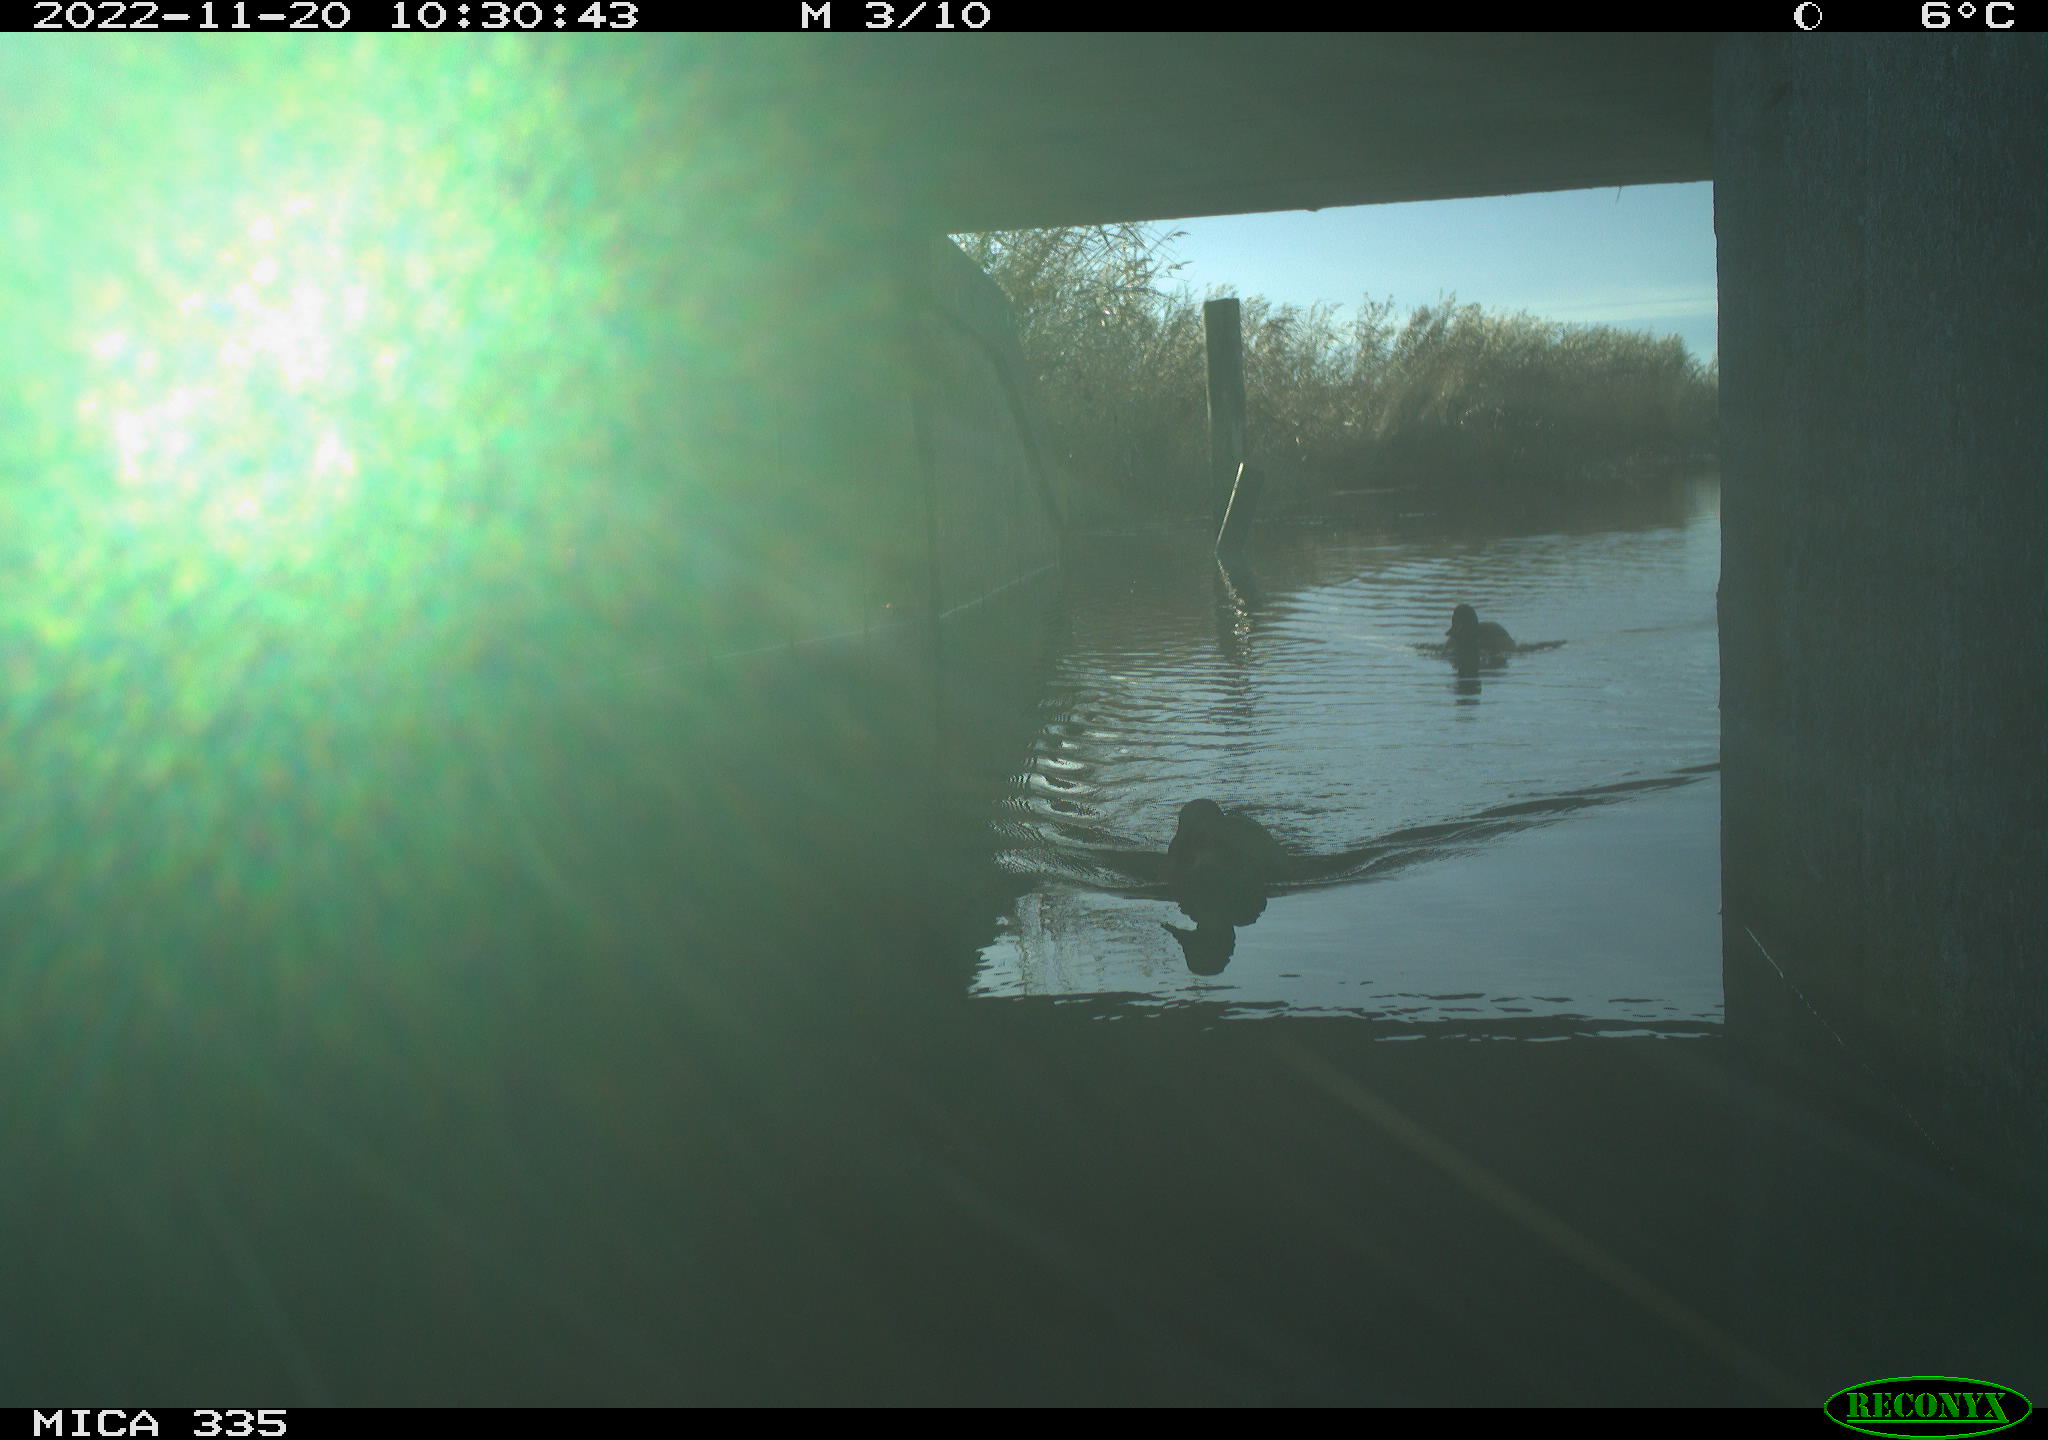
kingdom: Animalia
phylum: Chordata
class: Aves
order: Anseriformes
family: Anatidae
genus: Anas
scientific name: Anas
